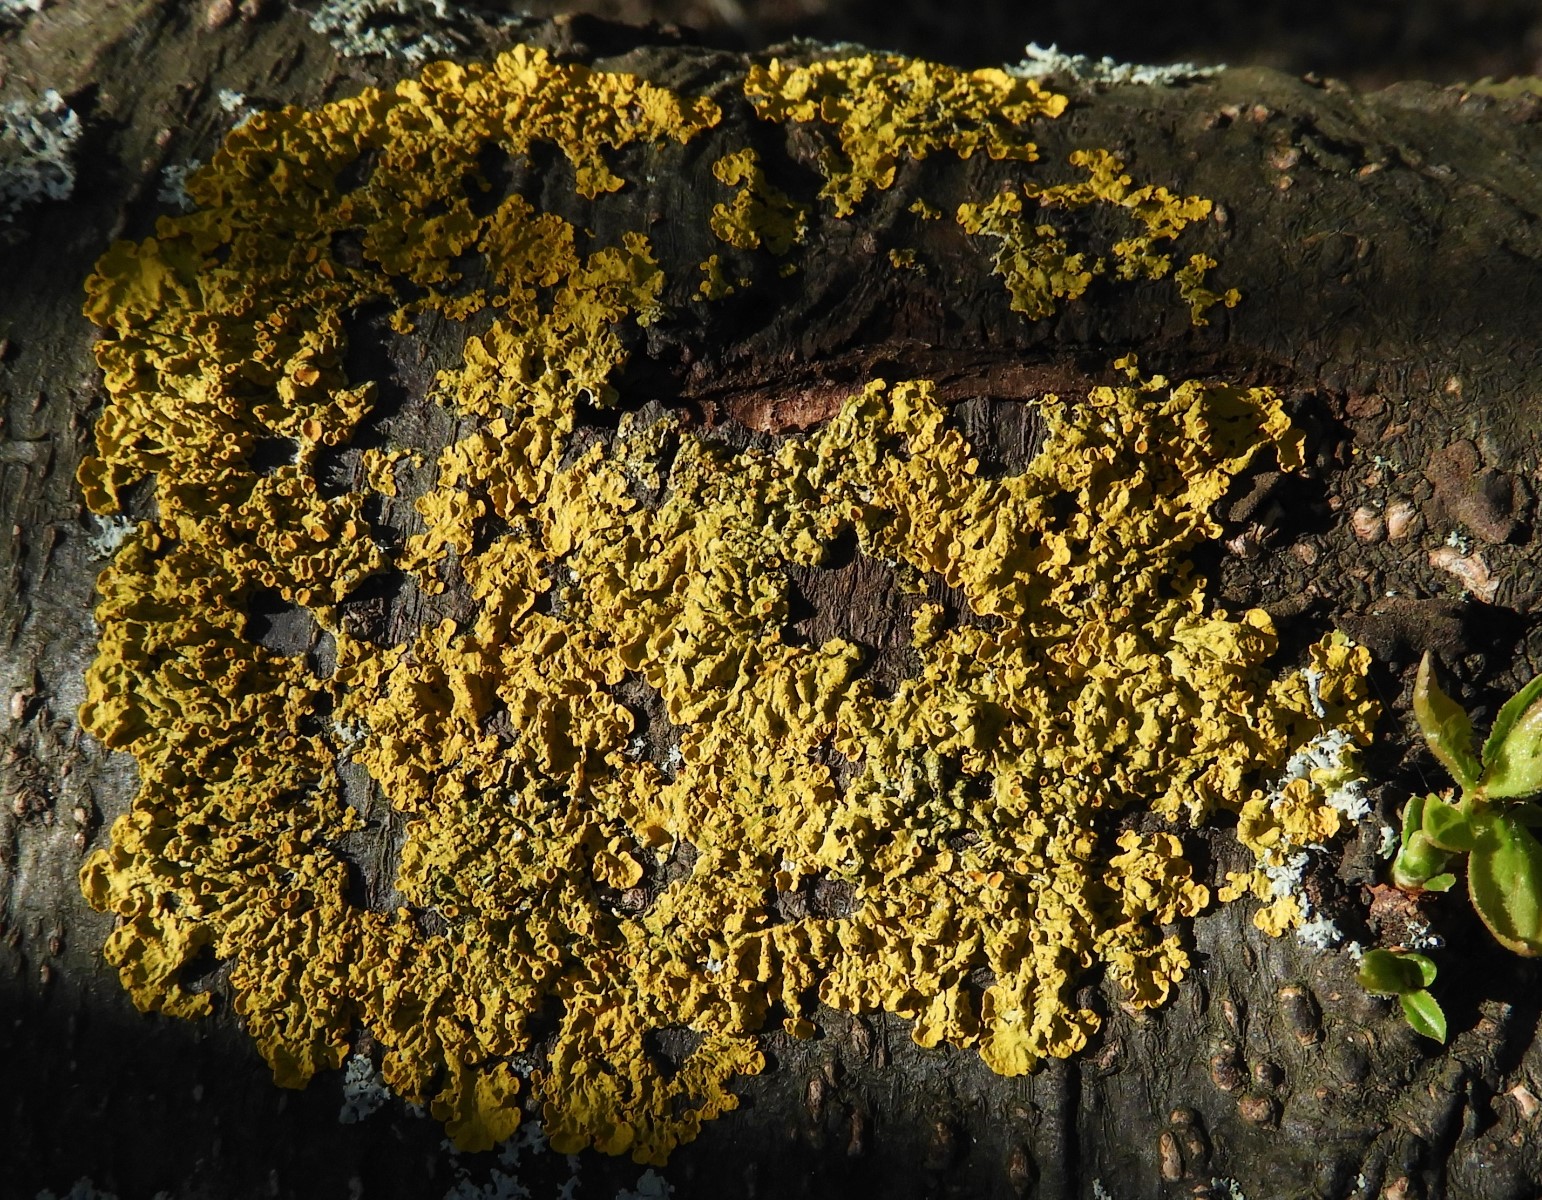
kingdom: Fungi
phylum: Ascomycota
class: Lecanoromycetes
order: Teloschistales
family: Teloschistaceae
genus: Xanthoria
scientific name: Xanthoria parietina
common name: almindelig væggelav
